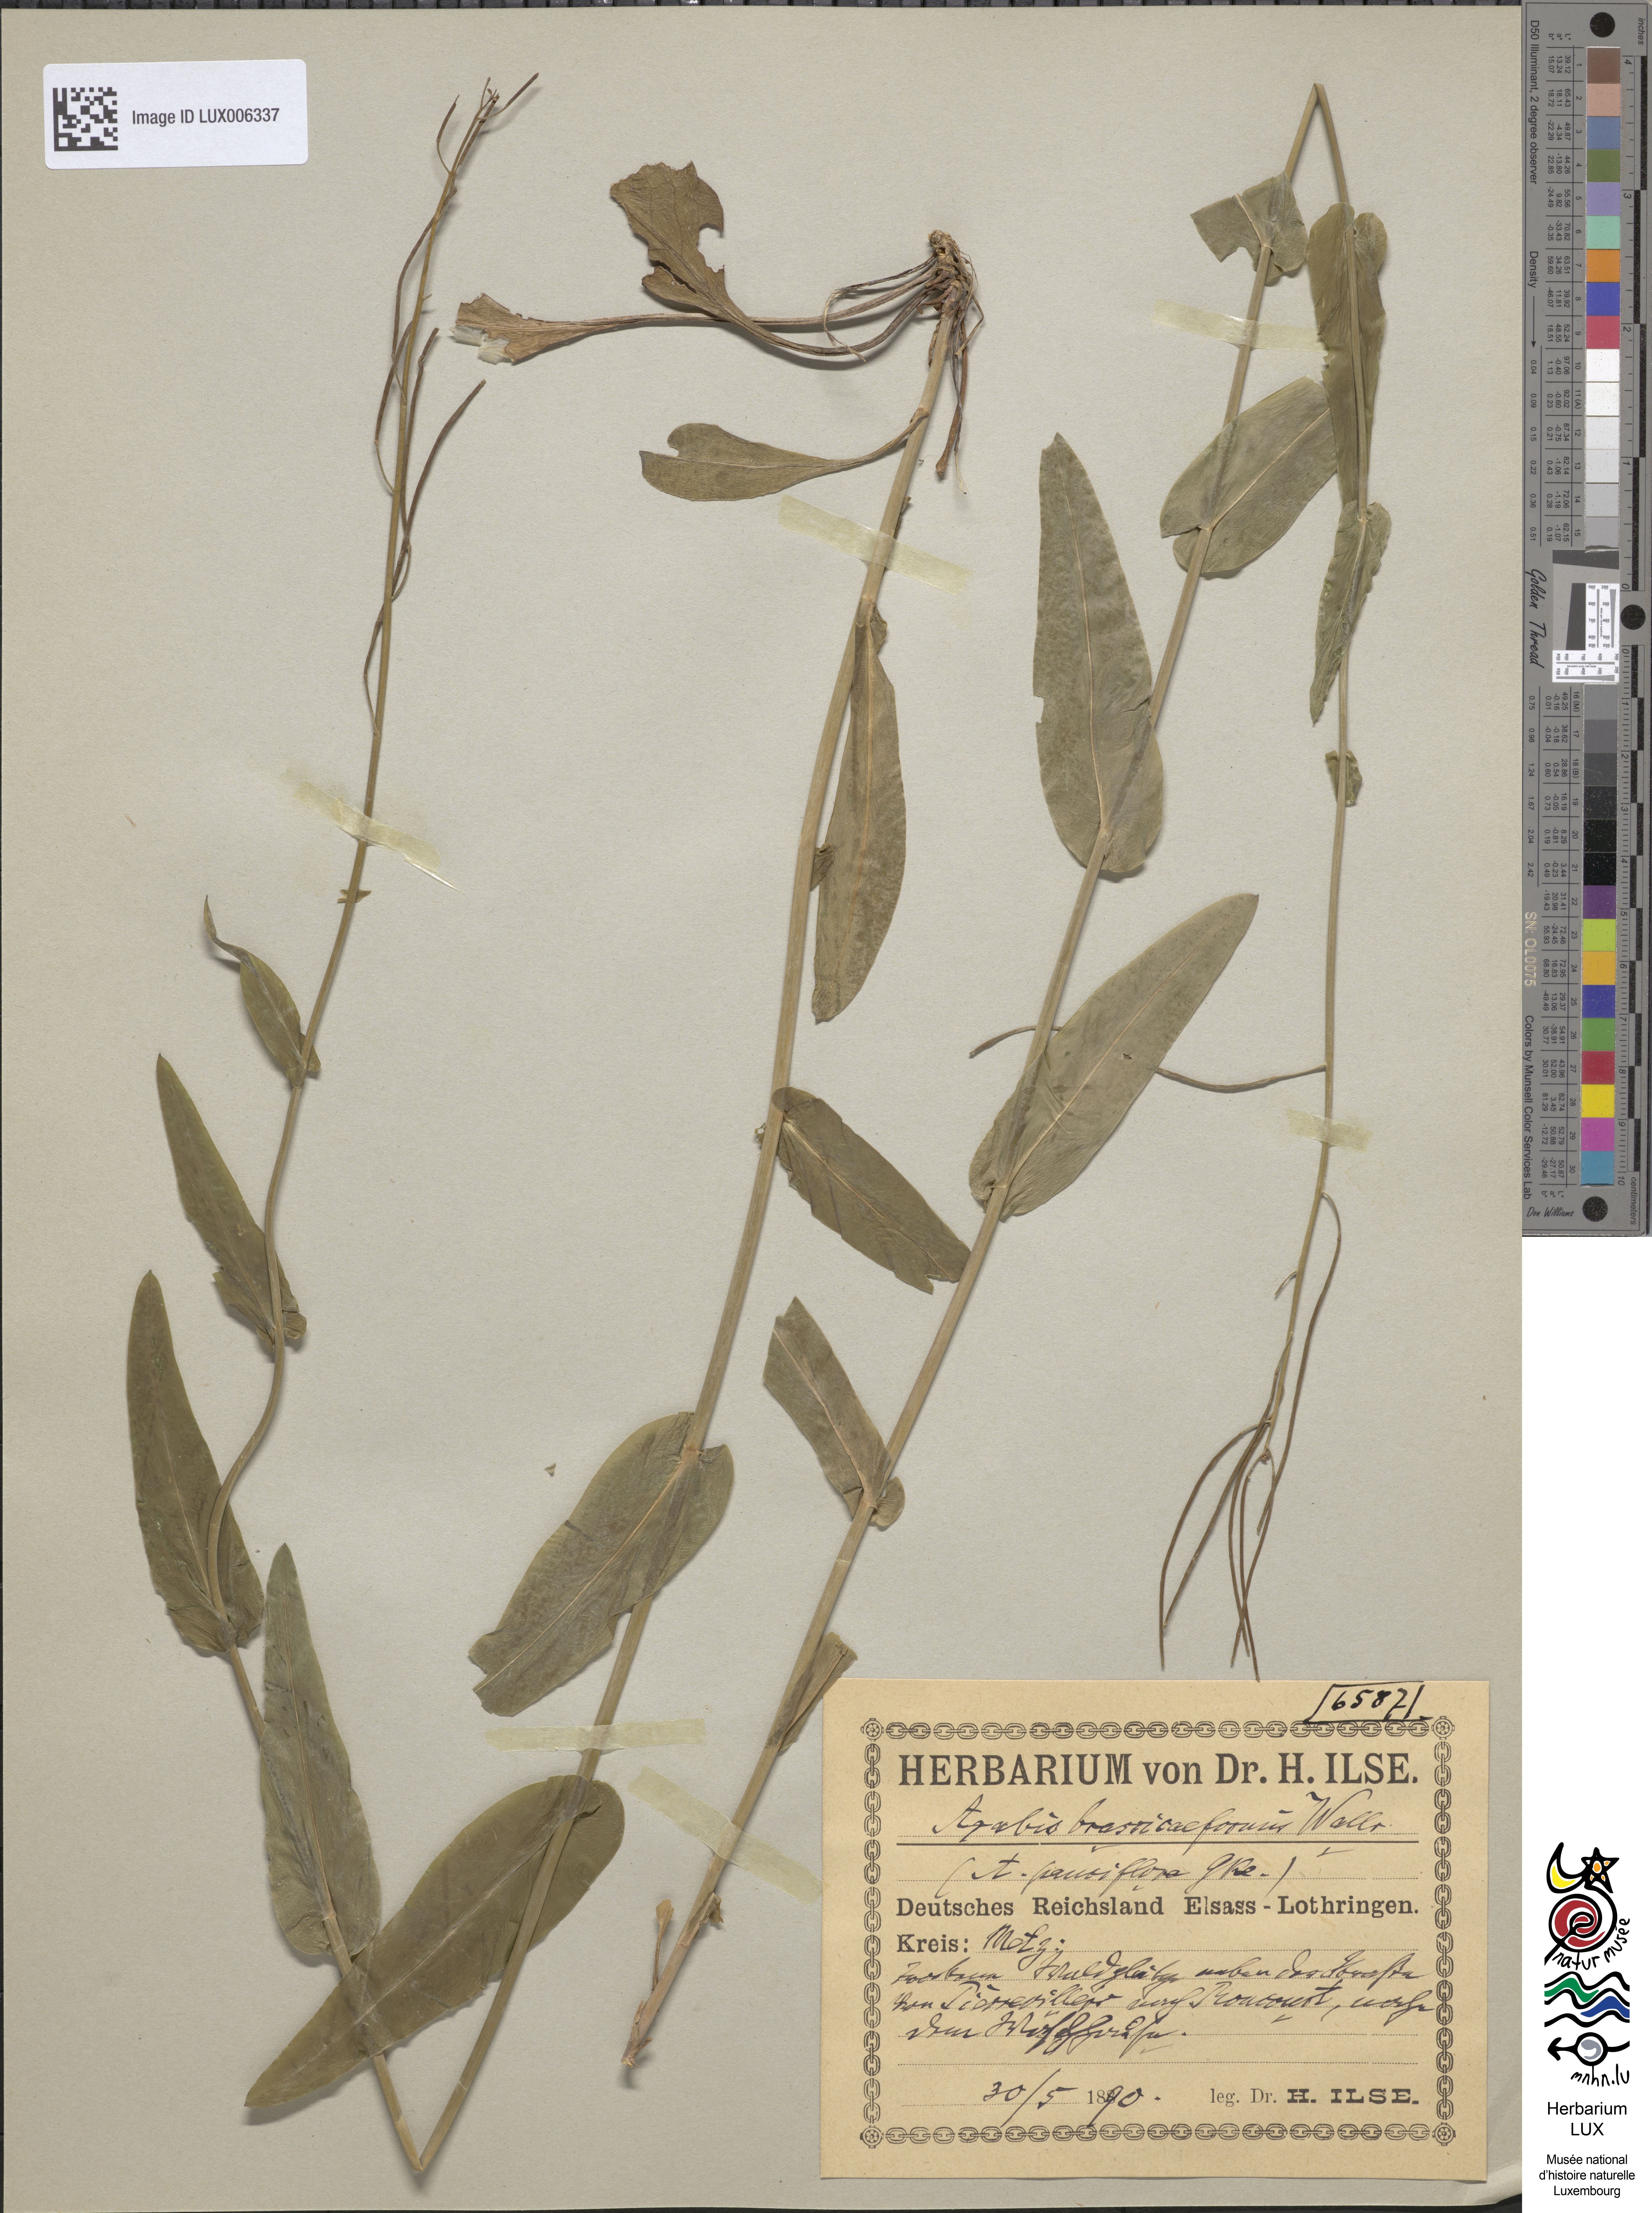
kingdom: Plantae
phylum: Tracheophyta
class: Magnoliopsida
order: Brassicales
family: Brassicaceae
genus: Fourraea
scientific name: Fourraea alpina
